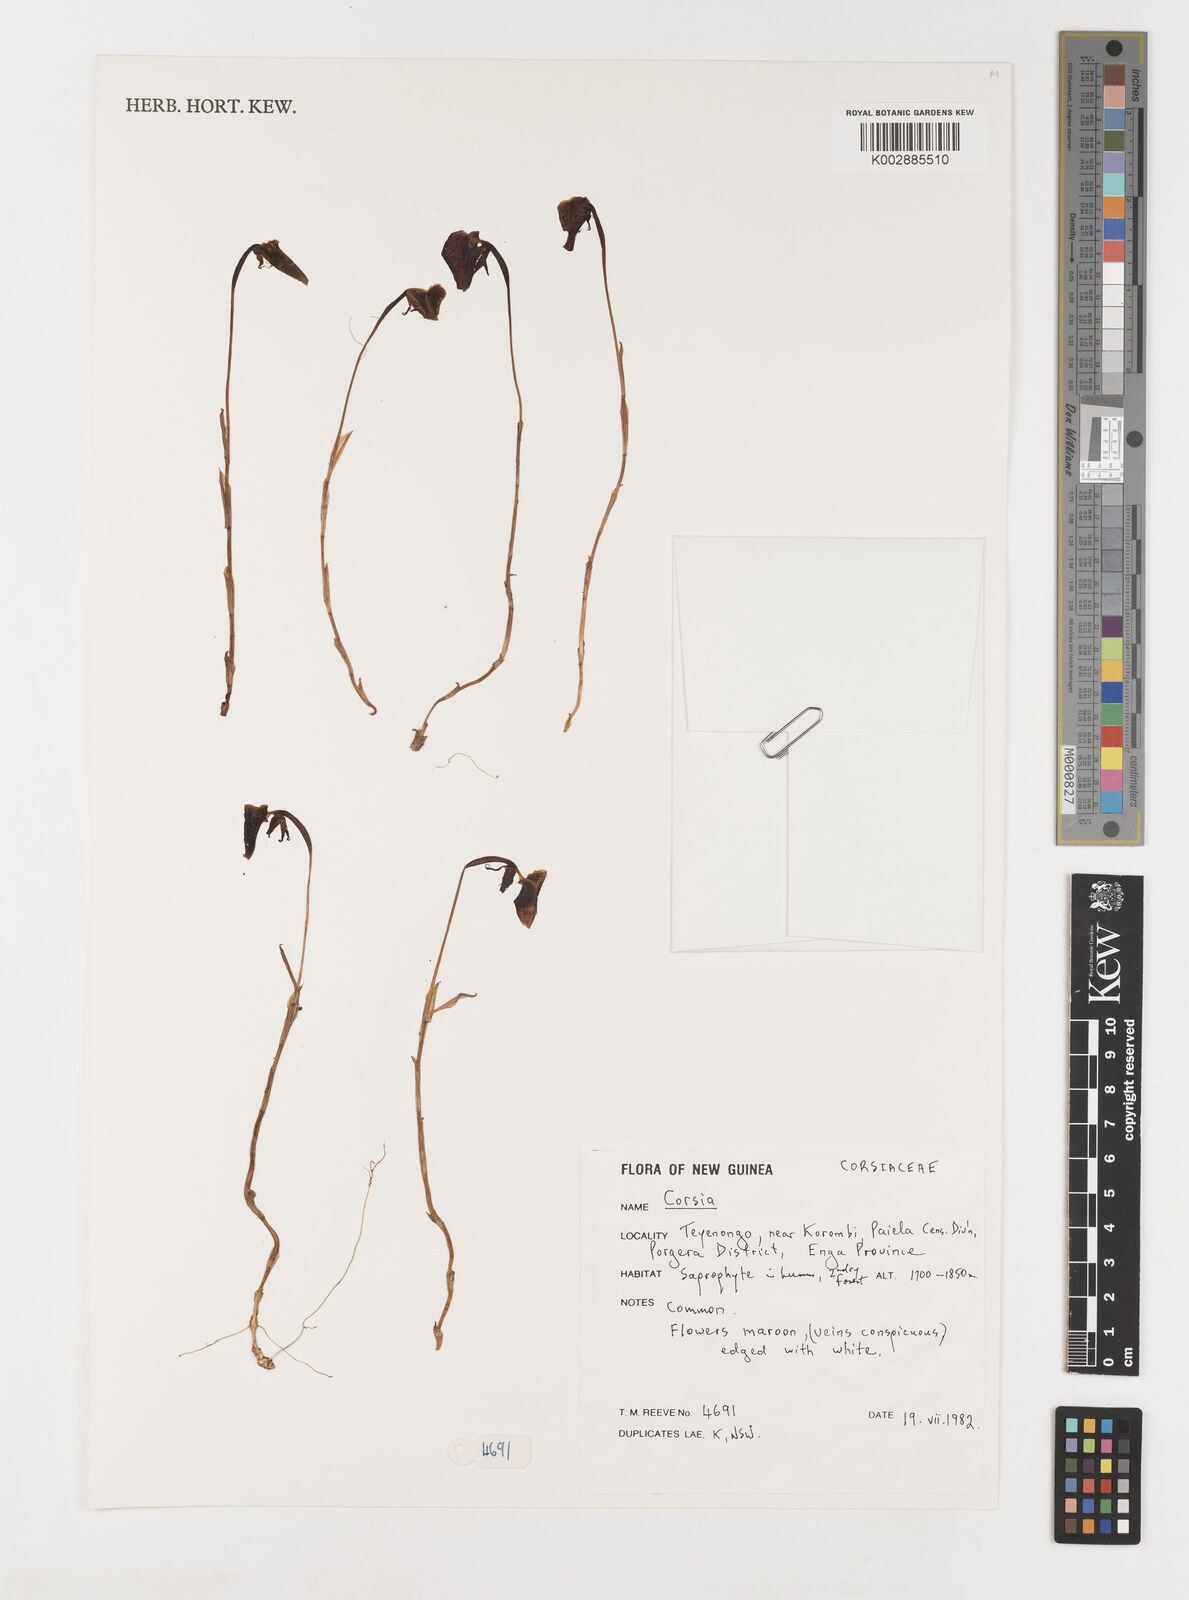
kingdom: Plantae
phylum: Tracheophyta
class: Liliopsida
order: Liliales
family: Corsiaceae
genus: Corsia
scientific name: Corsia
